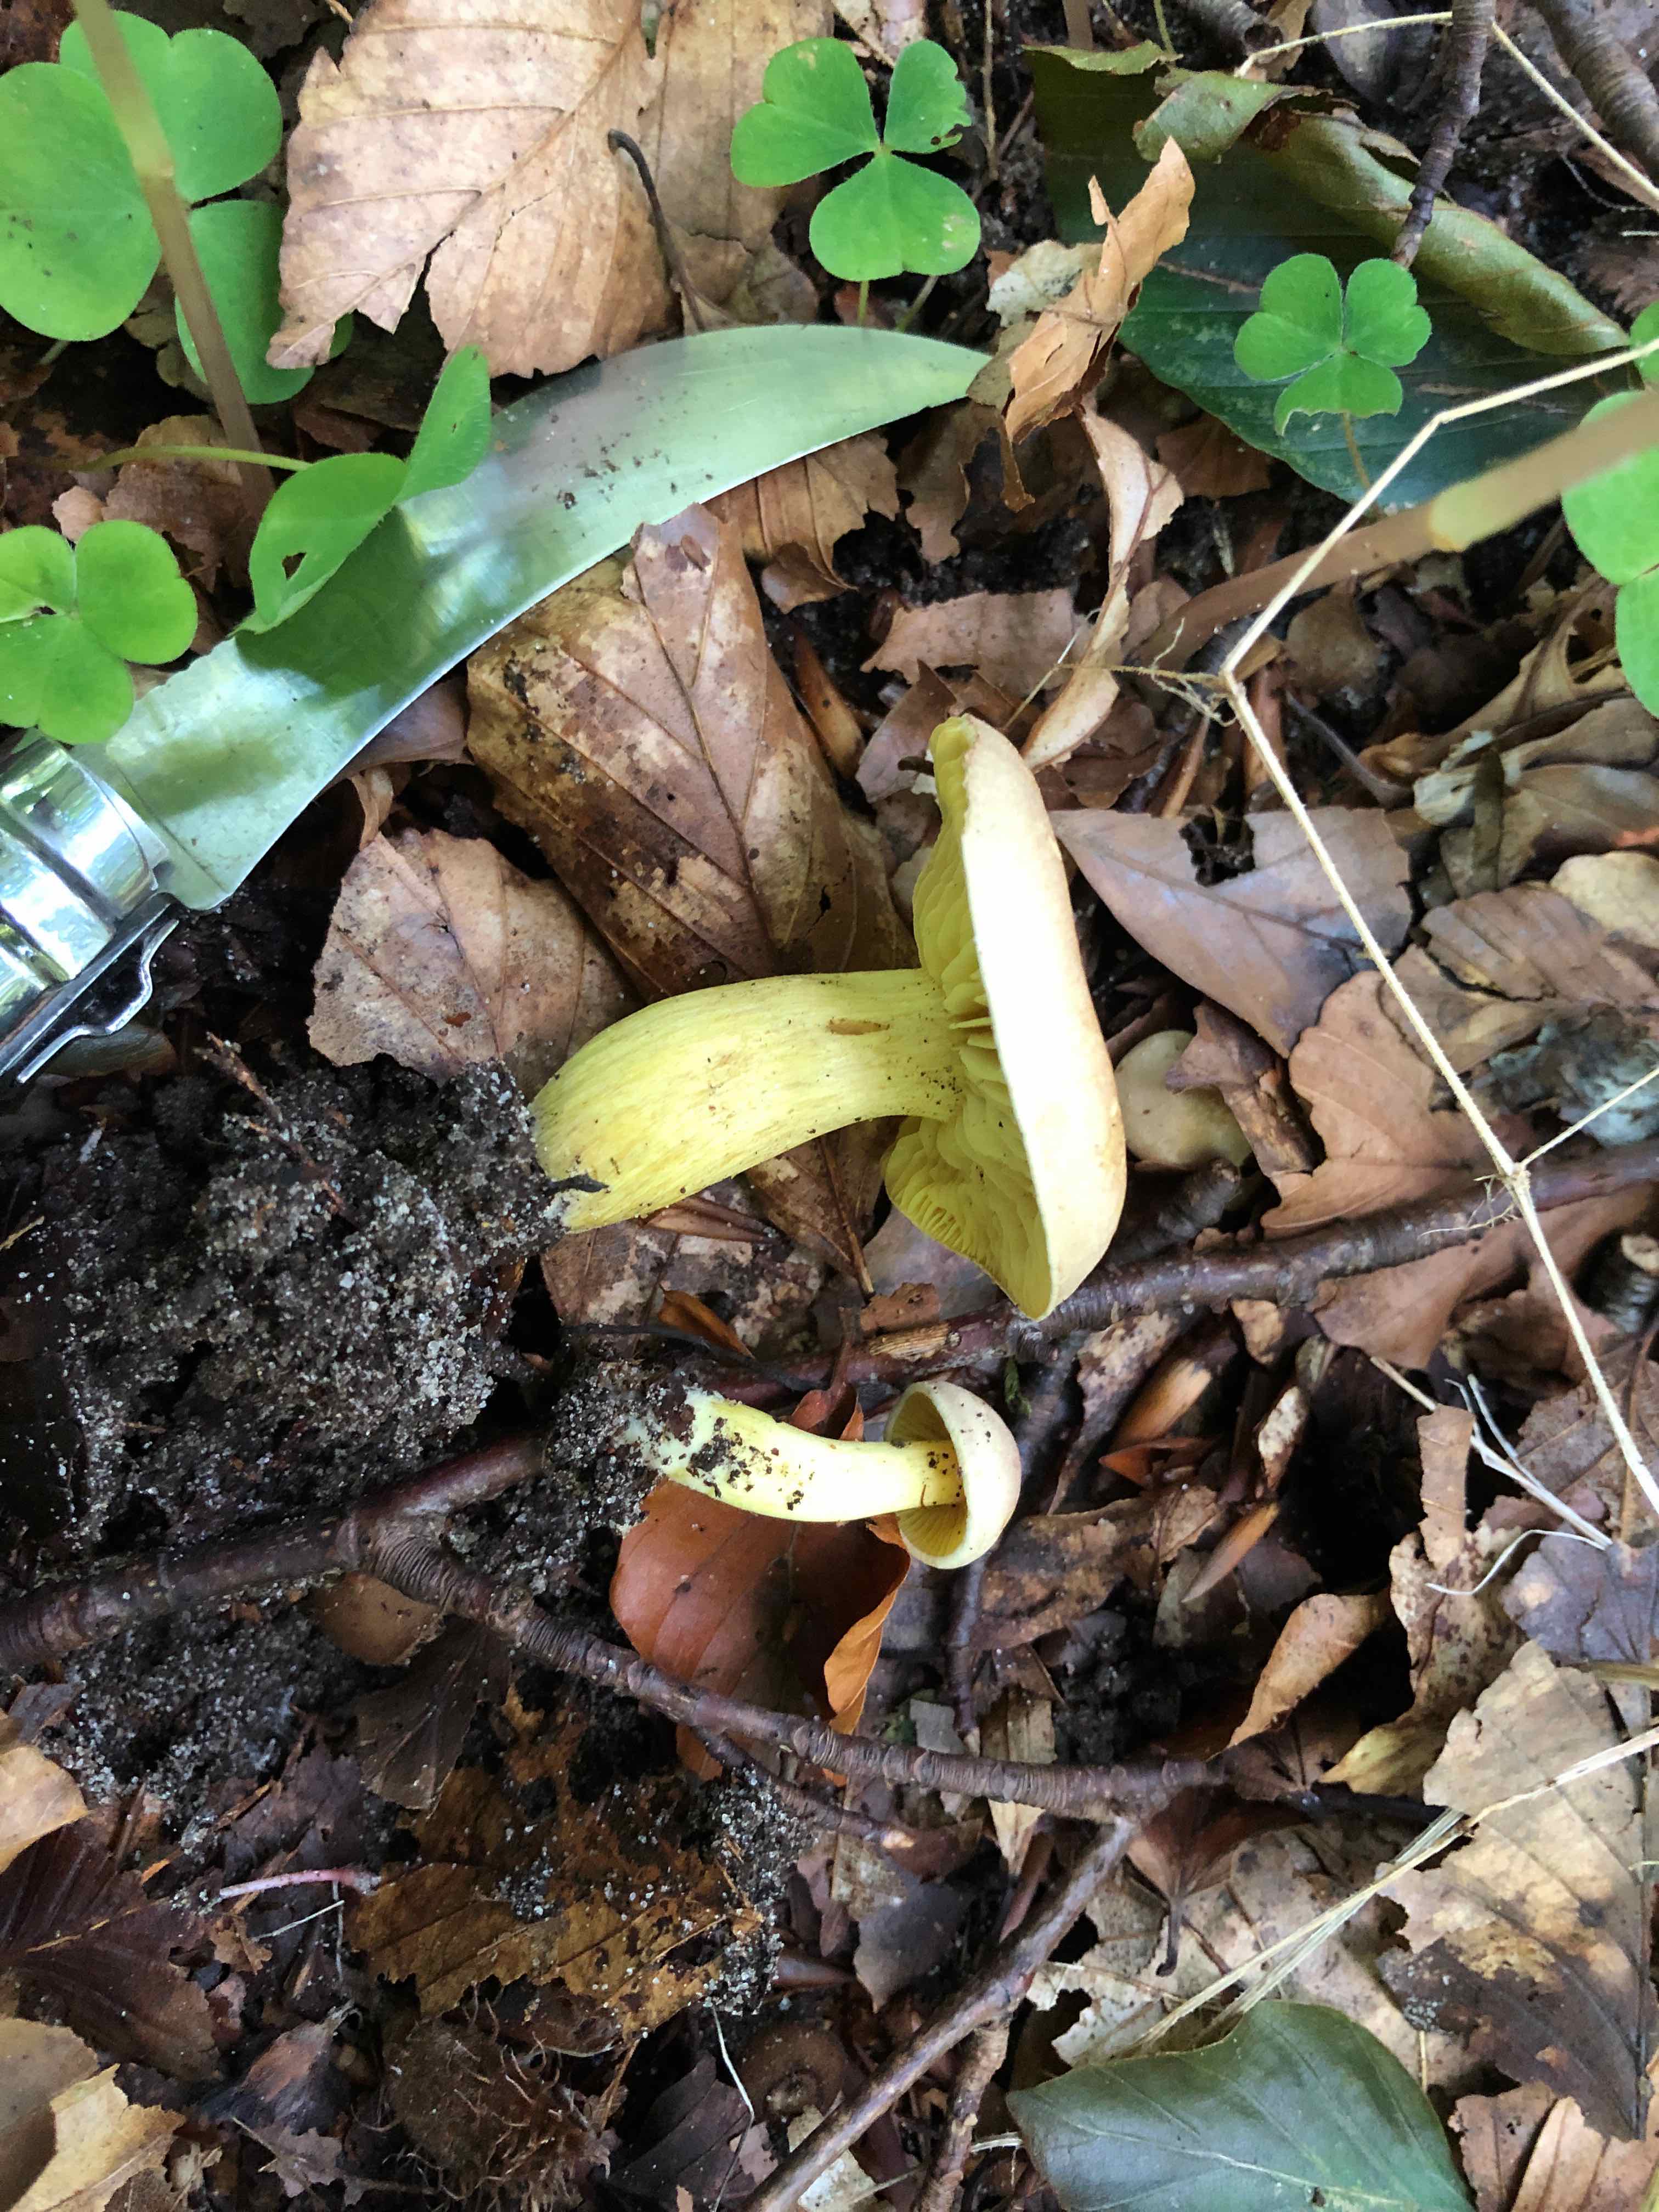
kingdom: Fungi
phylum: Basidiomycota
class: Agaricomycetes
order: Agaricales
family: Tricholomataceae
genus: Tricholoma
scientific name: Tricholoma sulphureum
